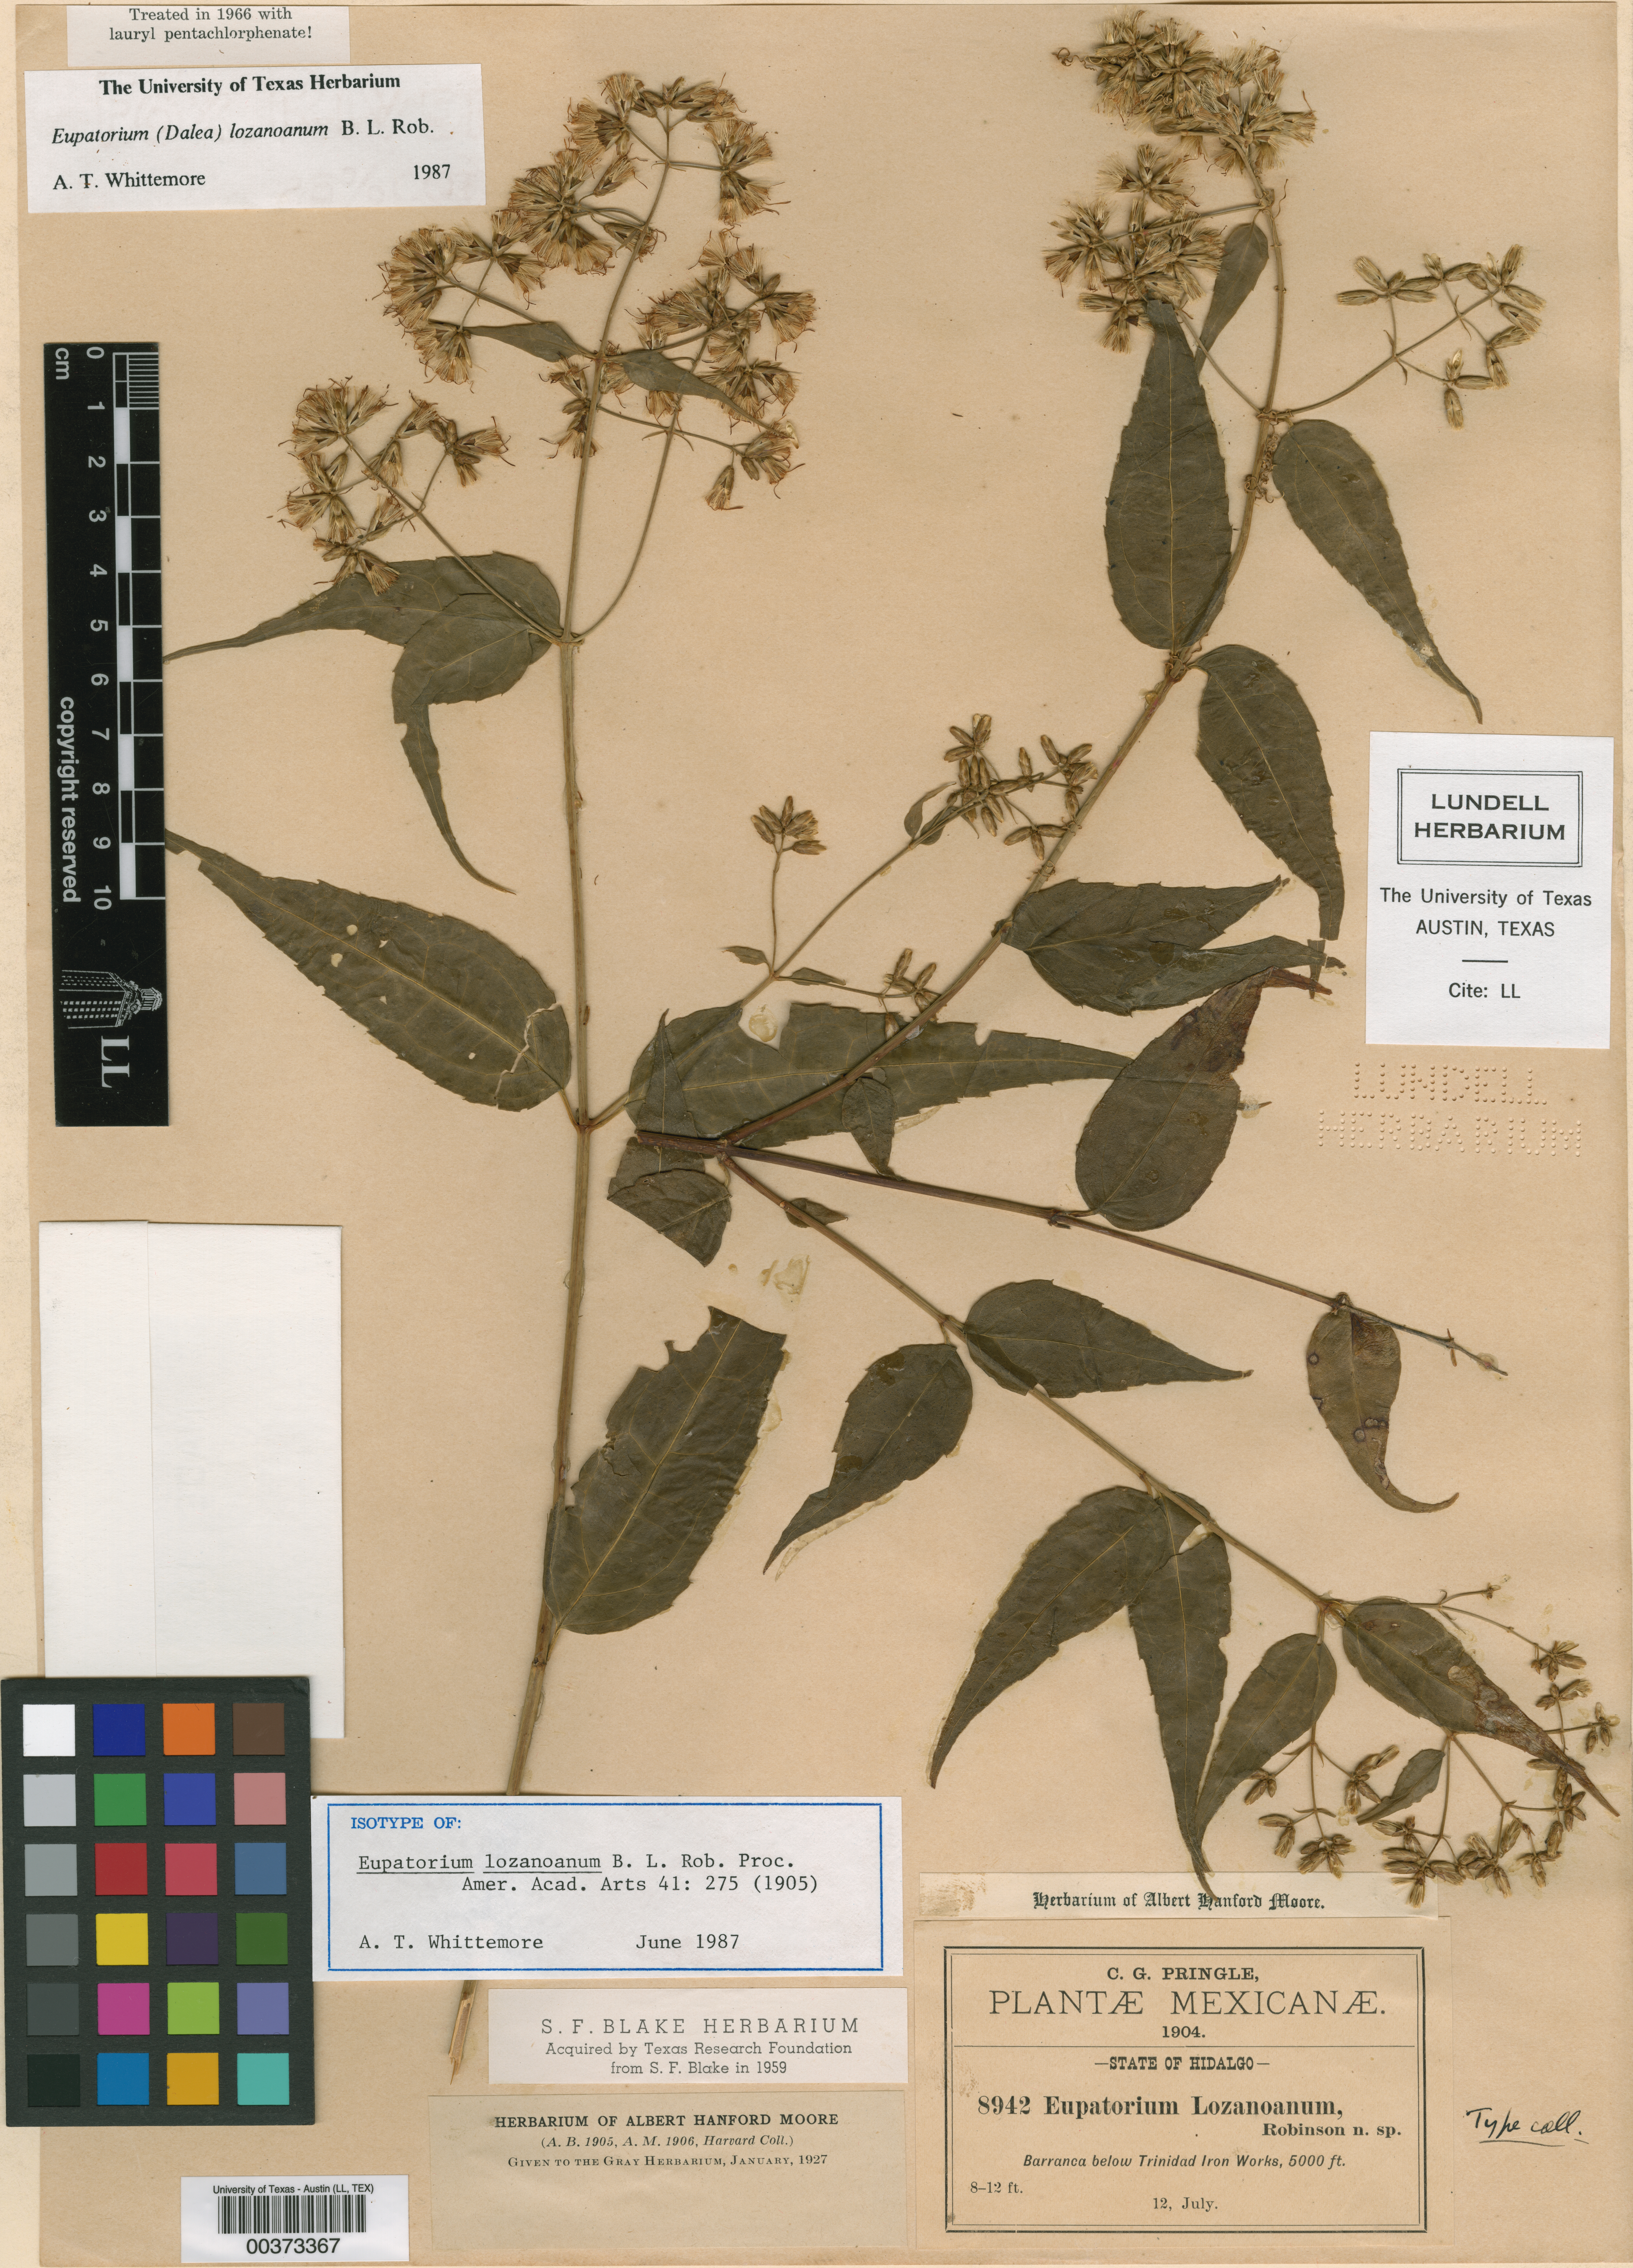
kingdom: Plantae
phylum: Tracheophyta
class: Magnoliopsida
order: Asterales
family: Asteraceae
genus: Critonia
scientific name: Critonia lozanoana
